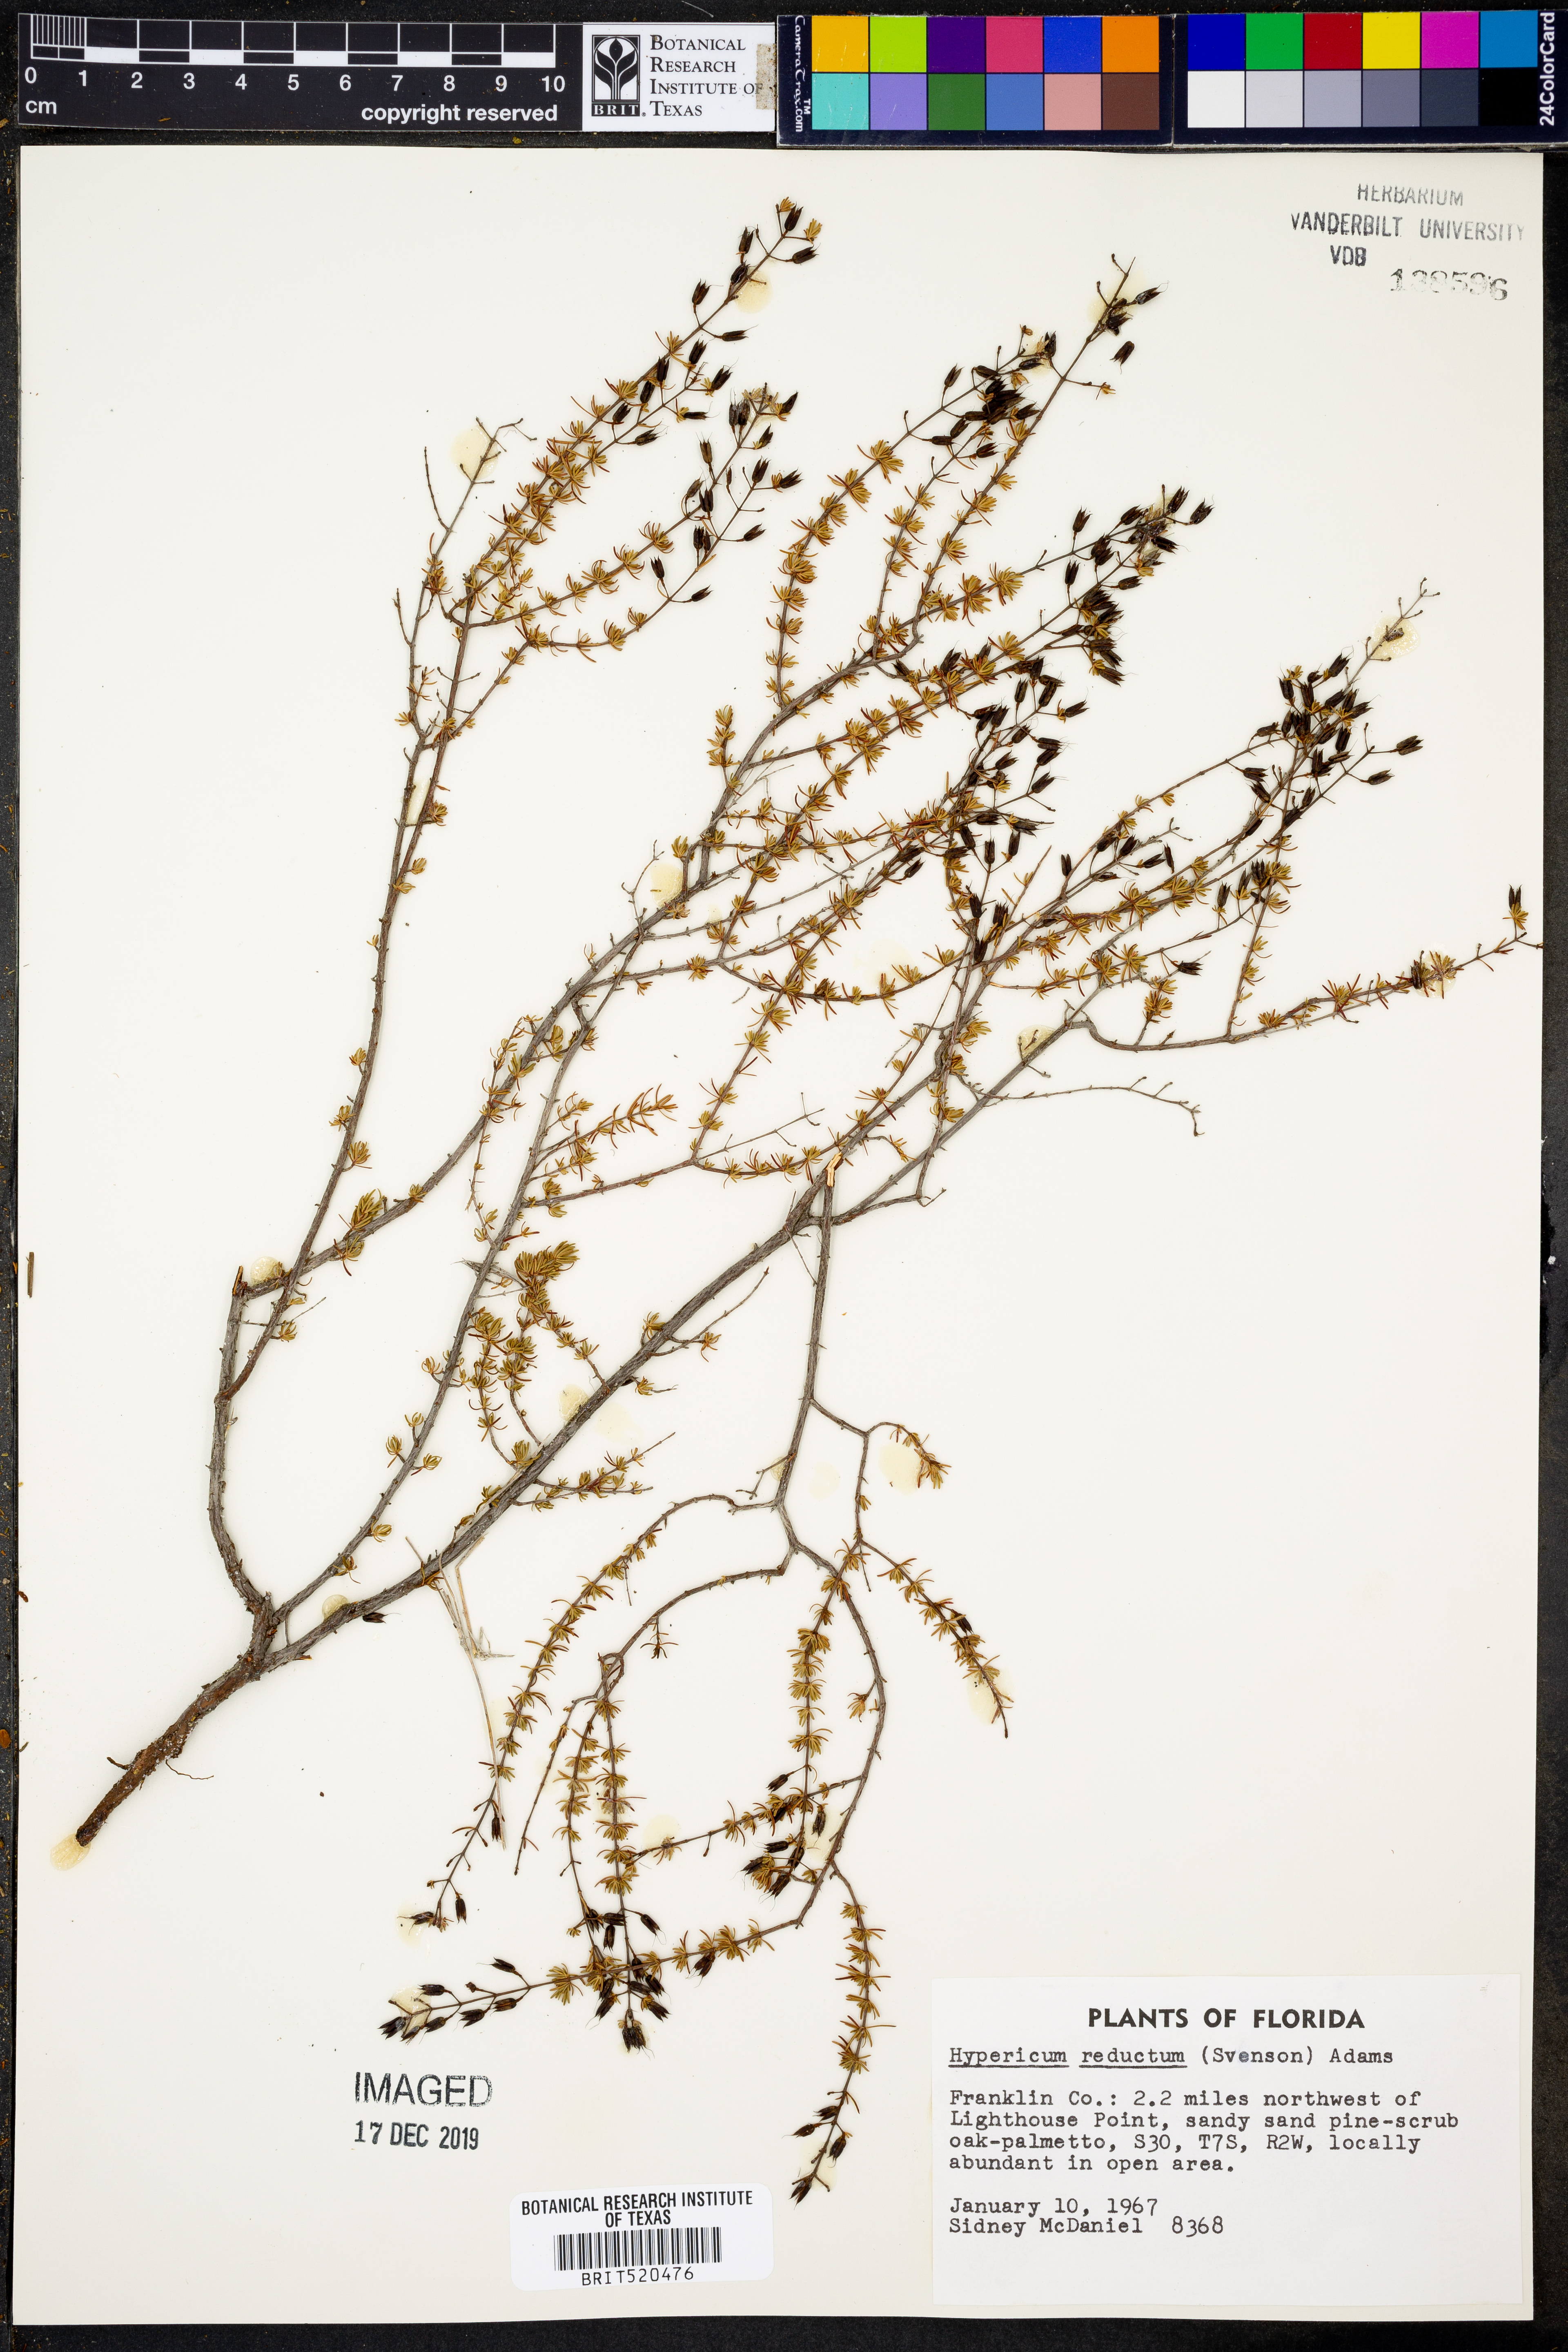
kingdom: Plantae
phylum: Tracheophyta
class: Magnoliopsida
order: Malpighiales
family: Hypericaceae
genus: Hypericum
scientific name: Hypericum tenuifolium
